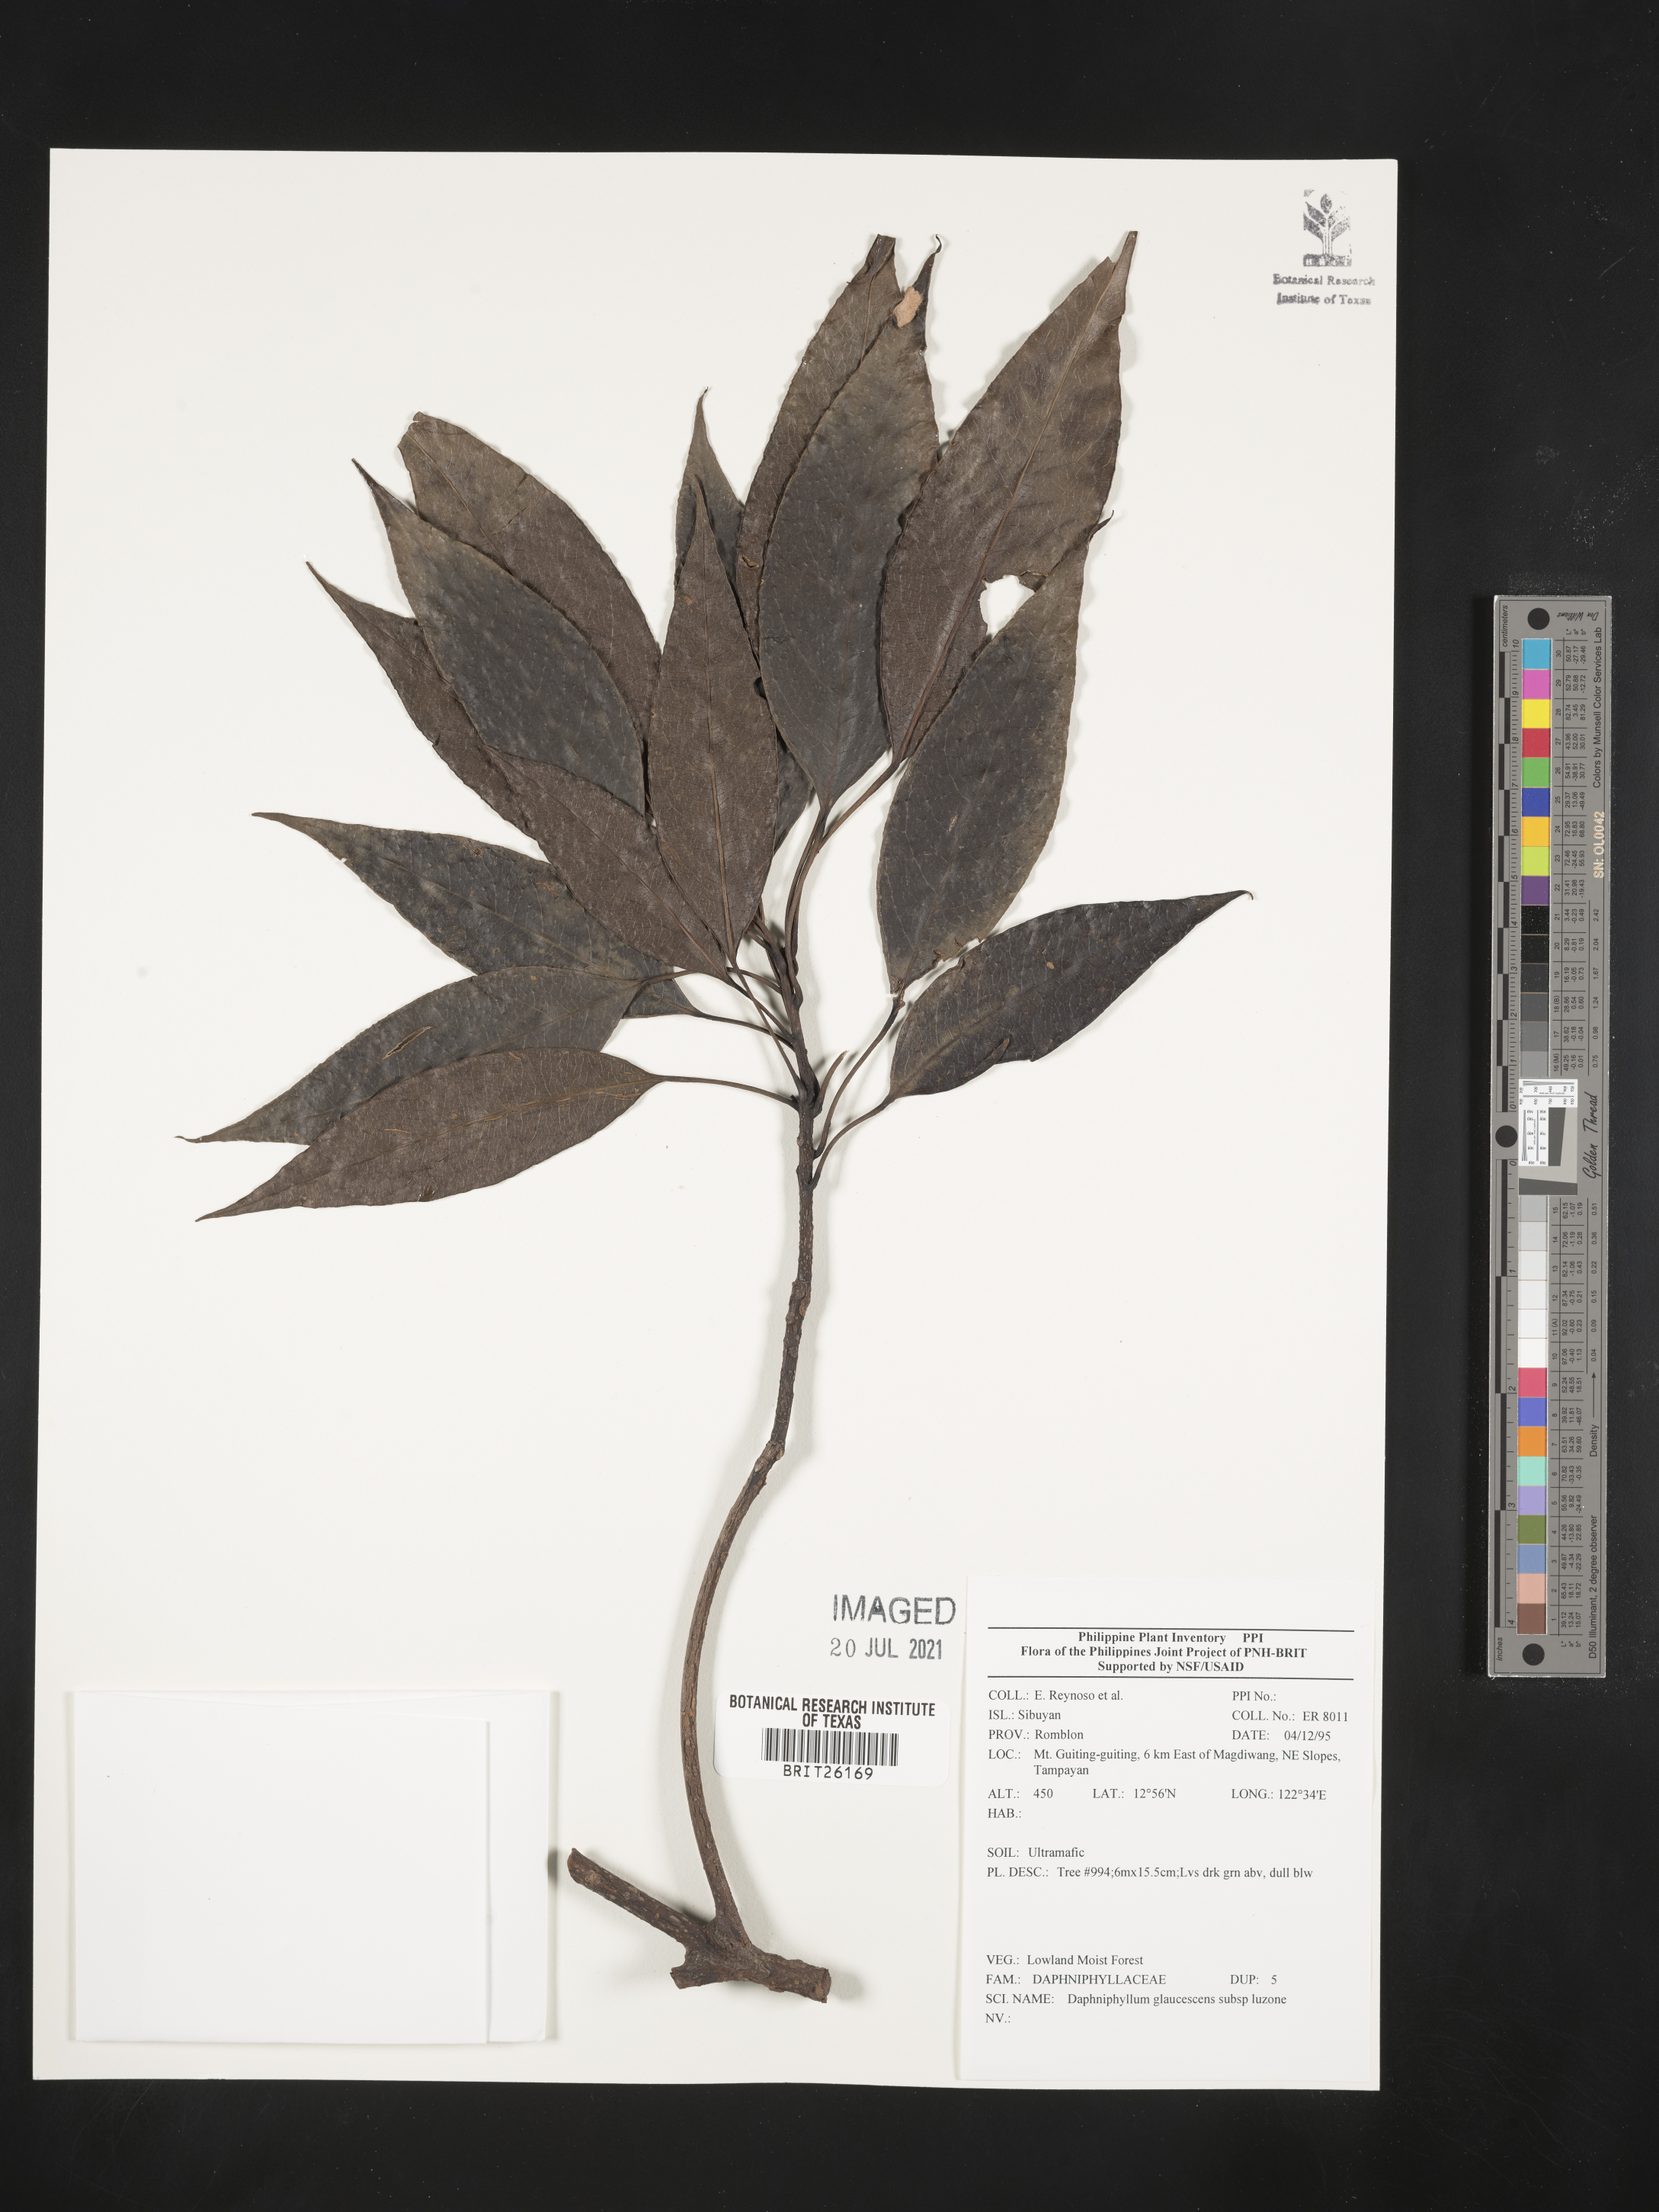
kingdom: Plantae
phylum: Tracheophyta
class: Magnoliopsida
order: Saxifragales
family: Daphniphyllaceae
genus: Daphniphyllum
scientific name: Daphniphyllum glaucescens
